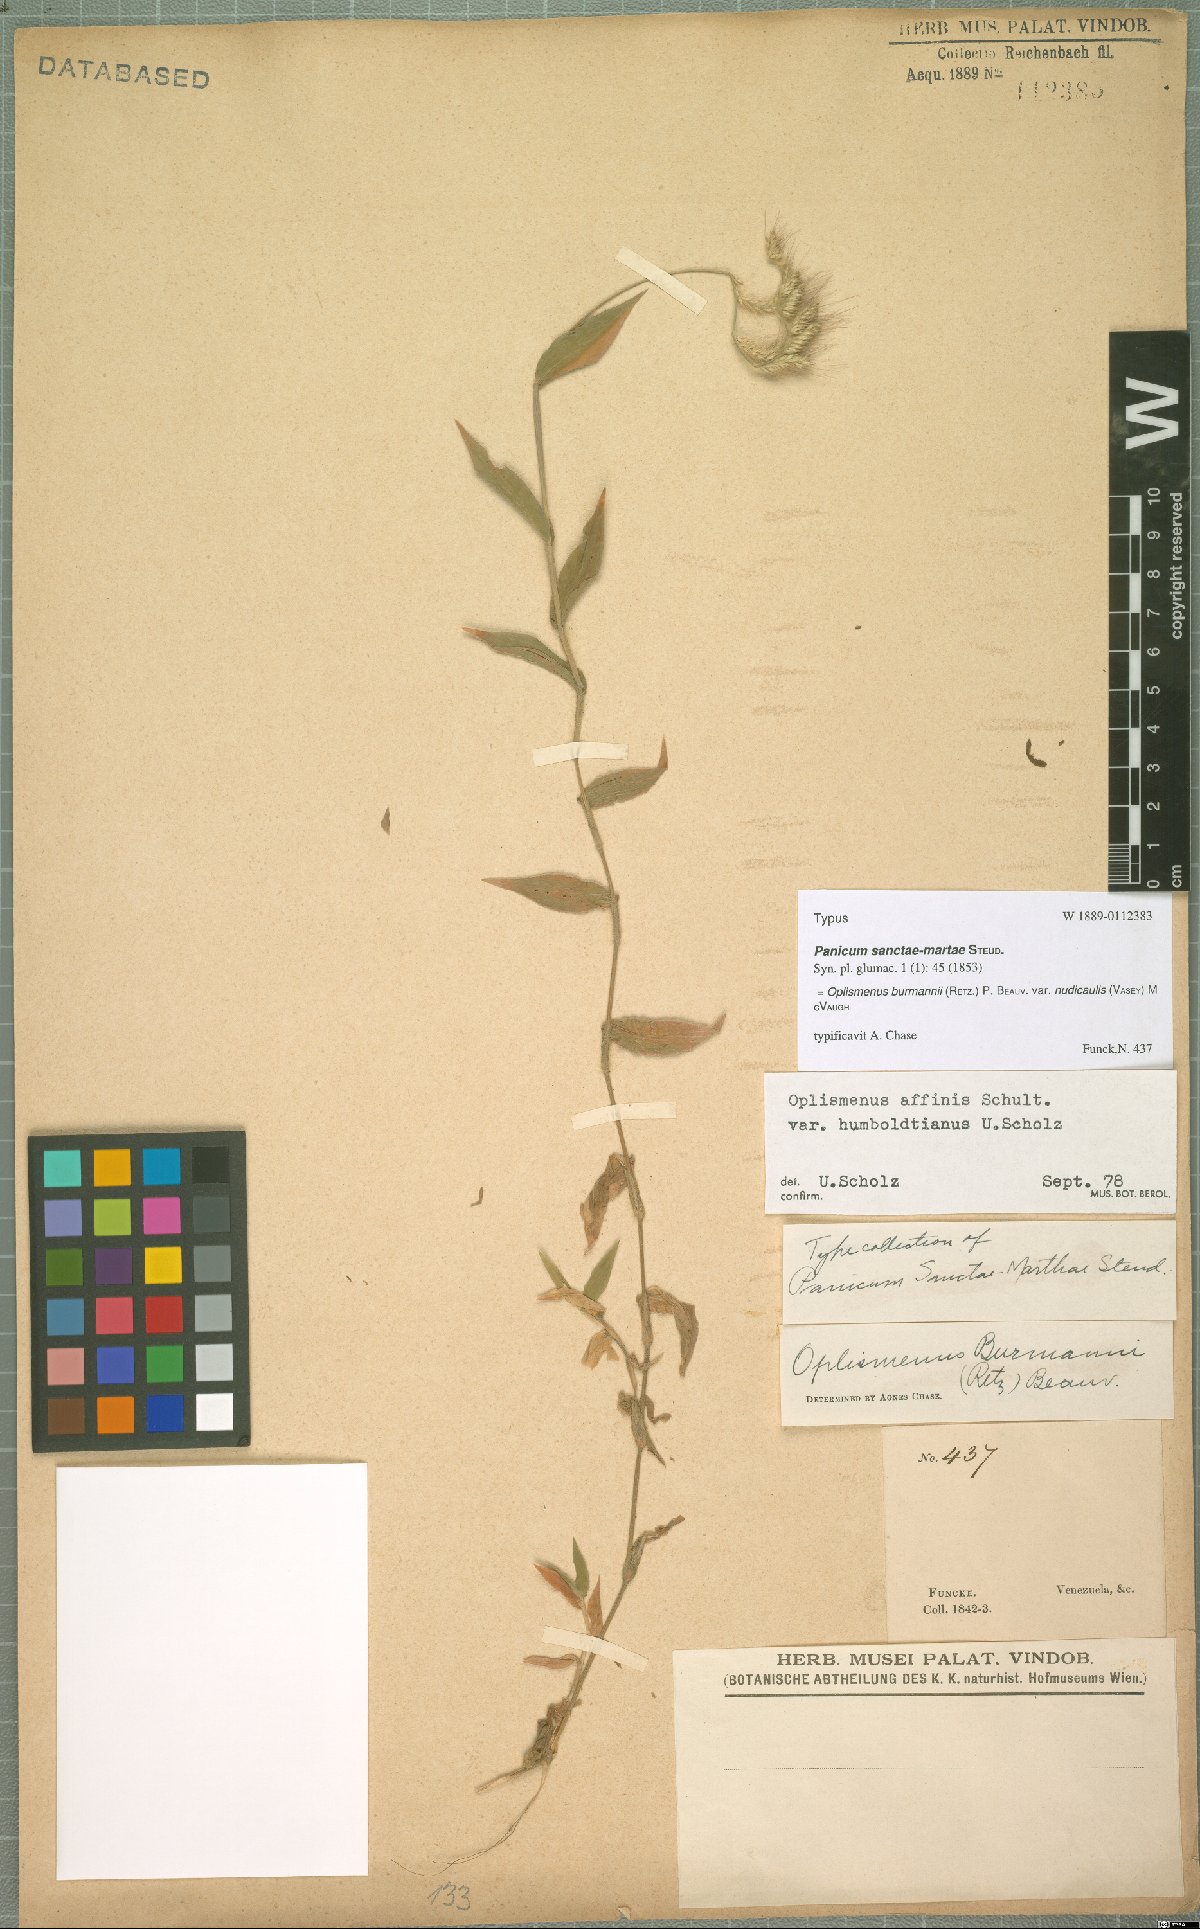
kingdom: Plantae
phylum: Tracheophyta
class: Liliopsida
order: Poales
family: Poaceae
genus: Oplismenus
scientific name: Oplismenus burmanni
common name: Burmann's basketgrass
